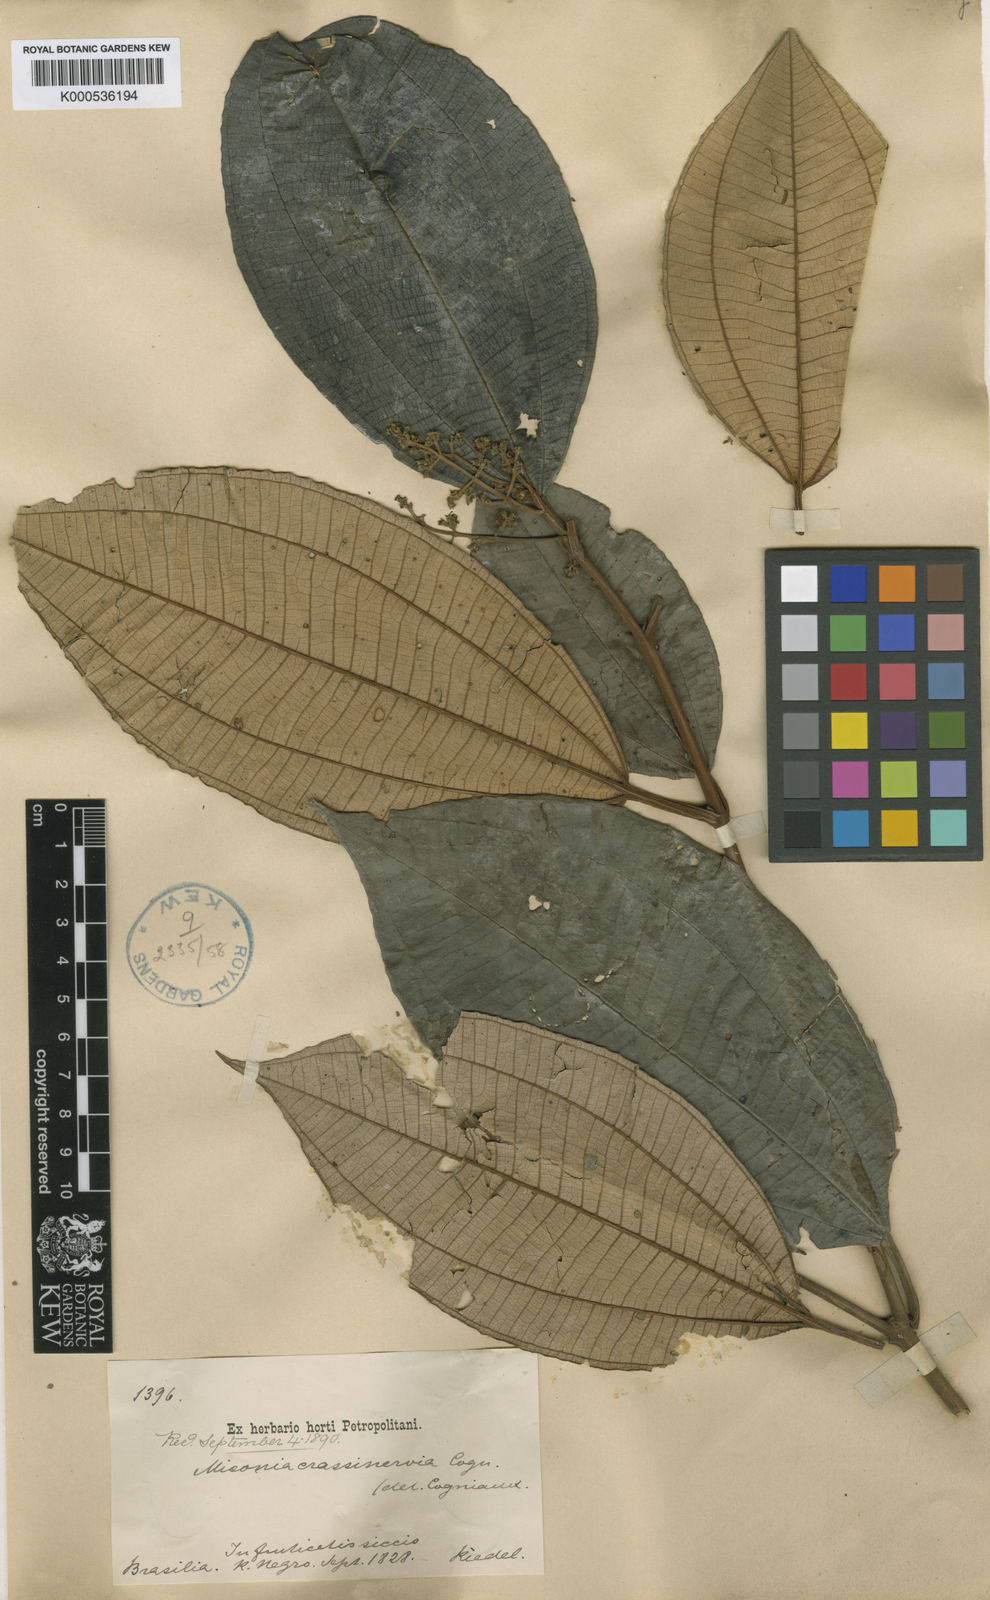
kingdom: Plantae
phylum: Tracheophyta
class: Magnoliopsida
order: Myrtales
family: Melastomataceae
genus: Miconia
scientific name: Miconia crassinervia
